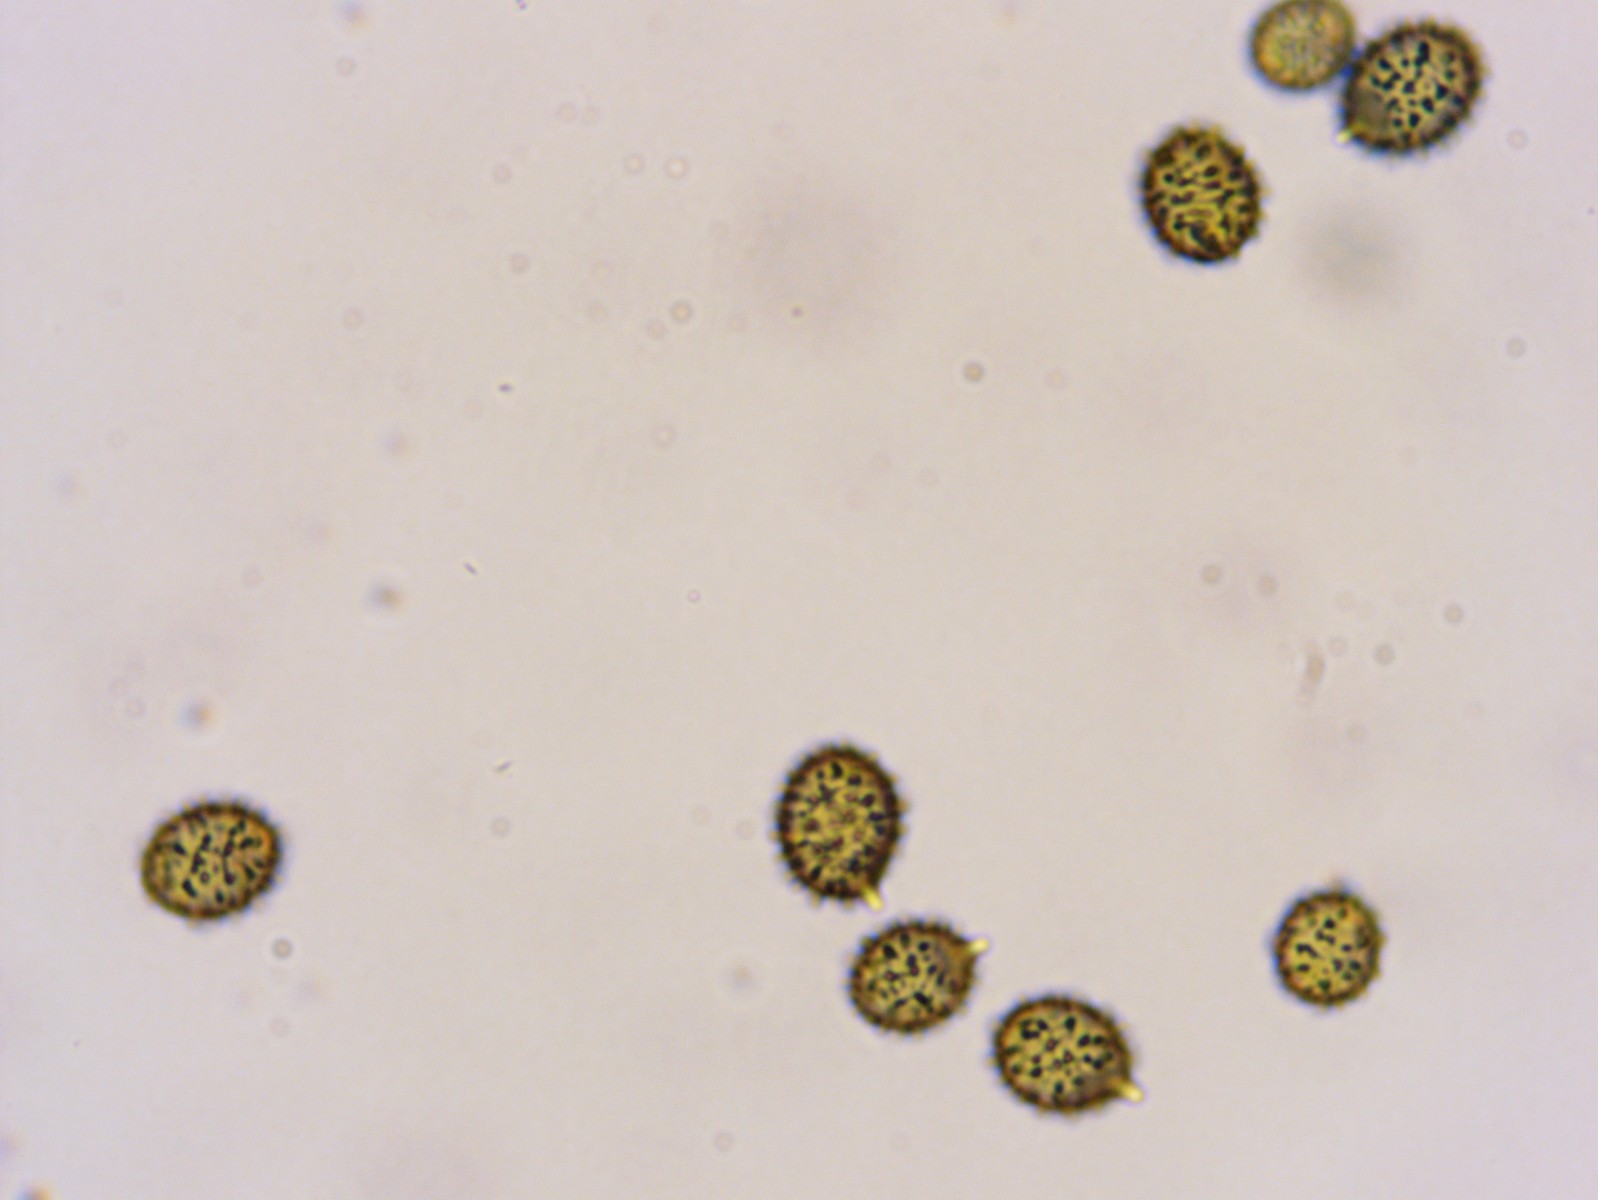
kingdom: Fungi
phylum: Basidiomycota
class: Agaricomycetes
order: Russulales
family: Russulaceae
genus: Russula
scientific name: Russula saliceticola
